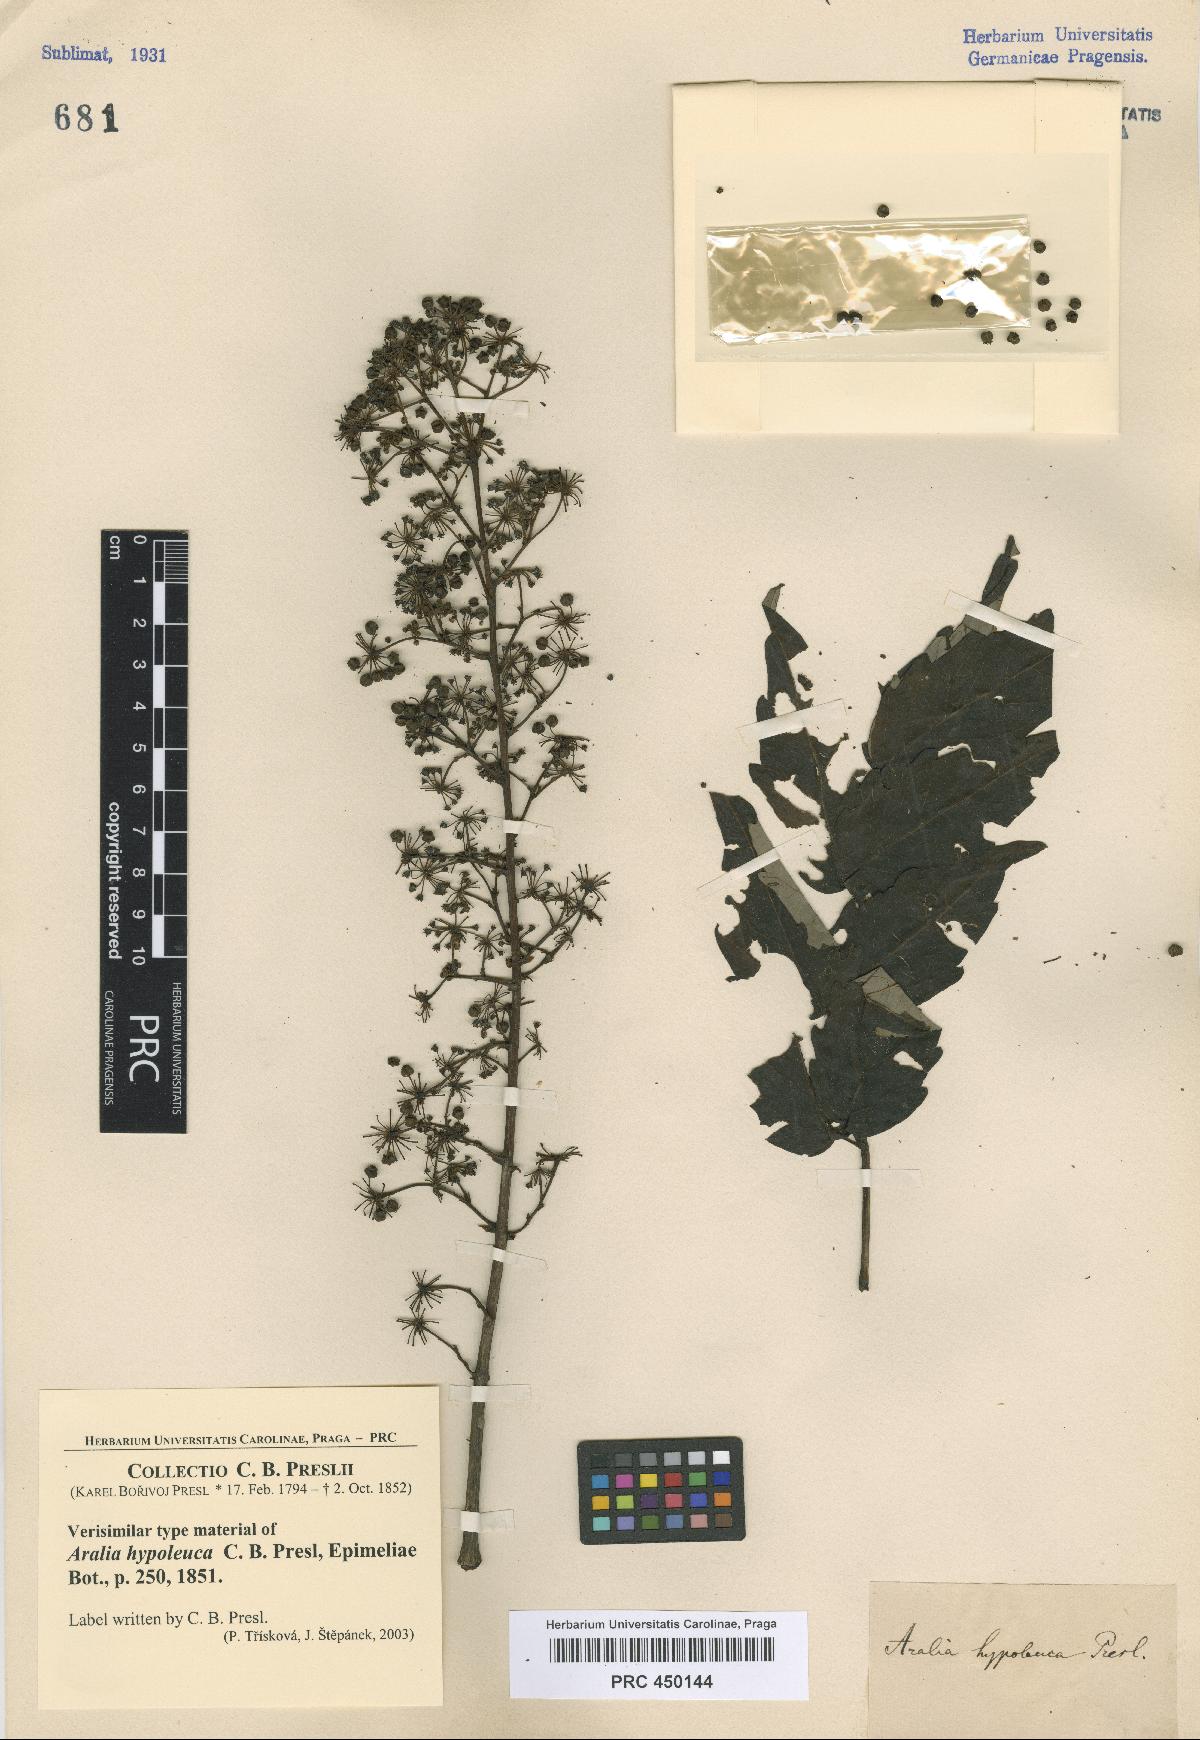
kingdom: Plantae
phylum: Tracheophyta
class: Magnoliopsida
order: Apiales
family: Araliaceae
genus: Aralia
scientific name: Aralia bipinnata
